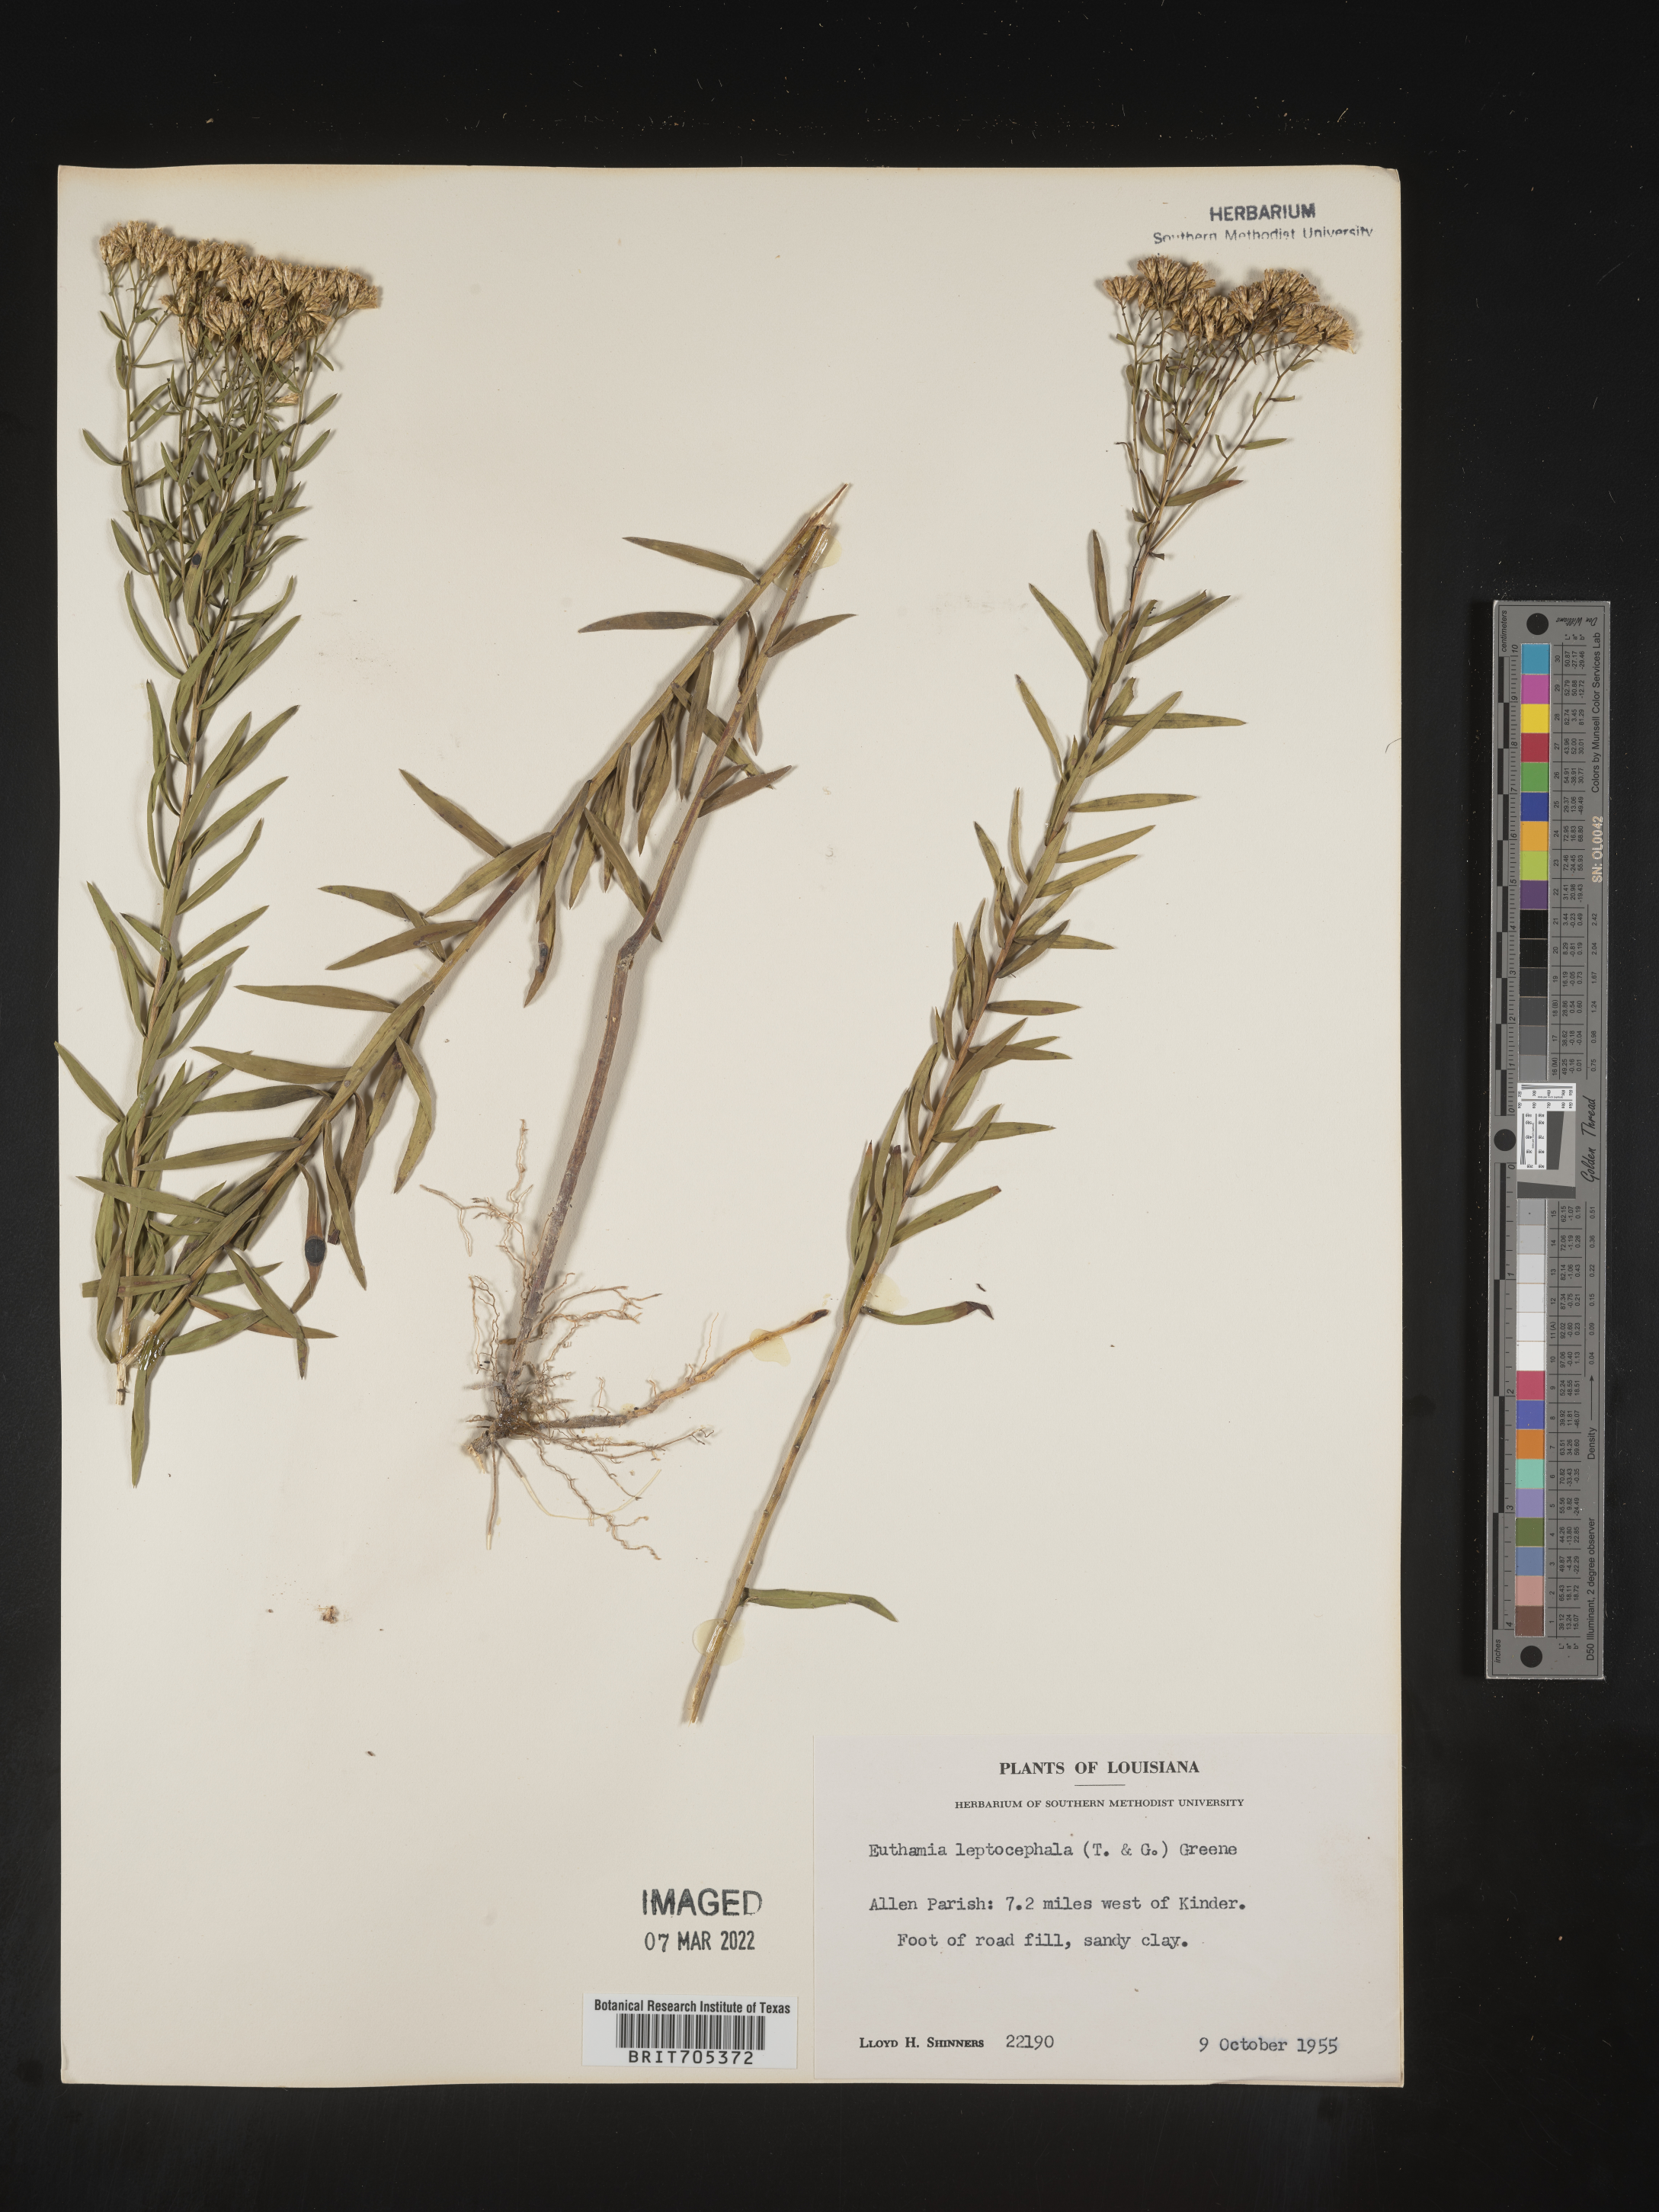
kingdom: Plantae
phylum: Tracheophyta
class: Magnoliopsida
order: Asterales
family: Asteraceae
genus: Euthamia
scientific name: Euthamia leptocephala
